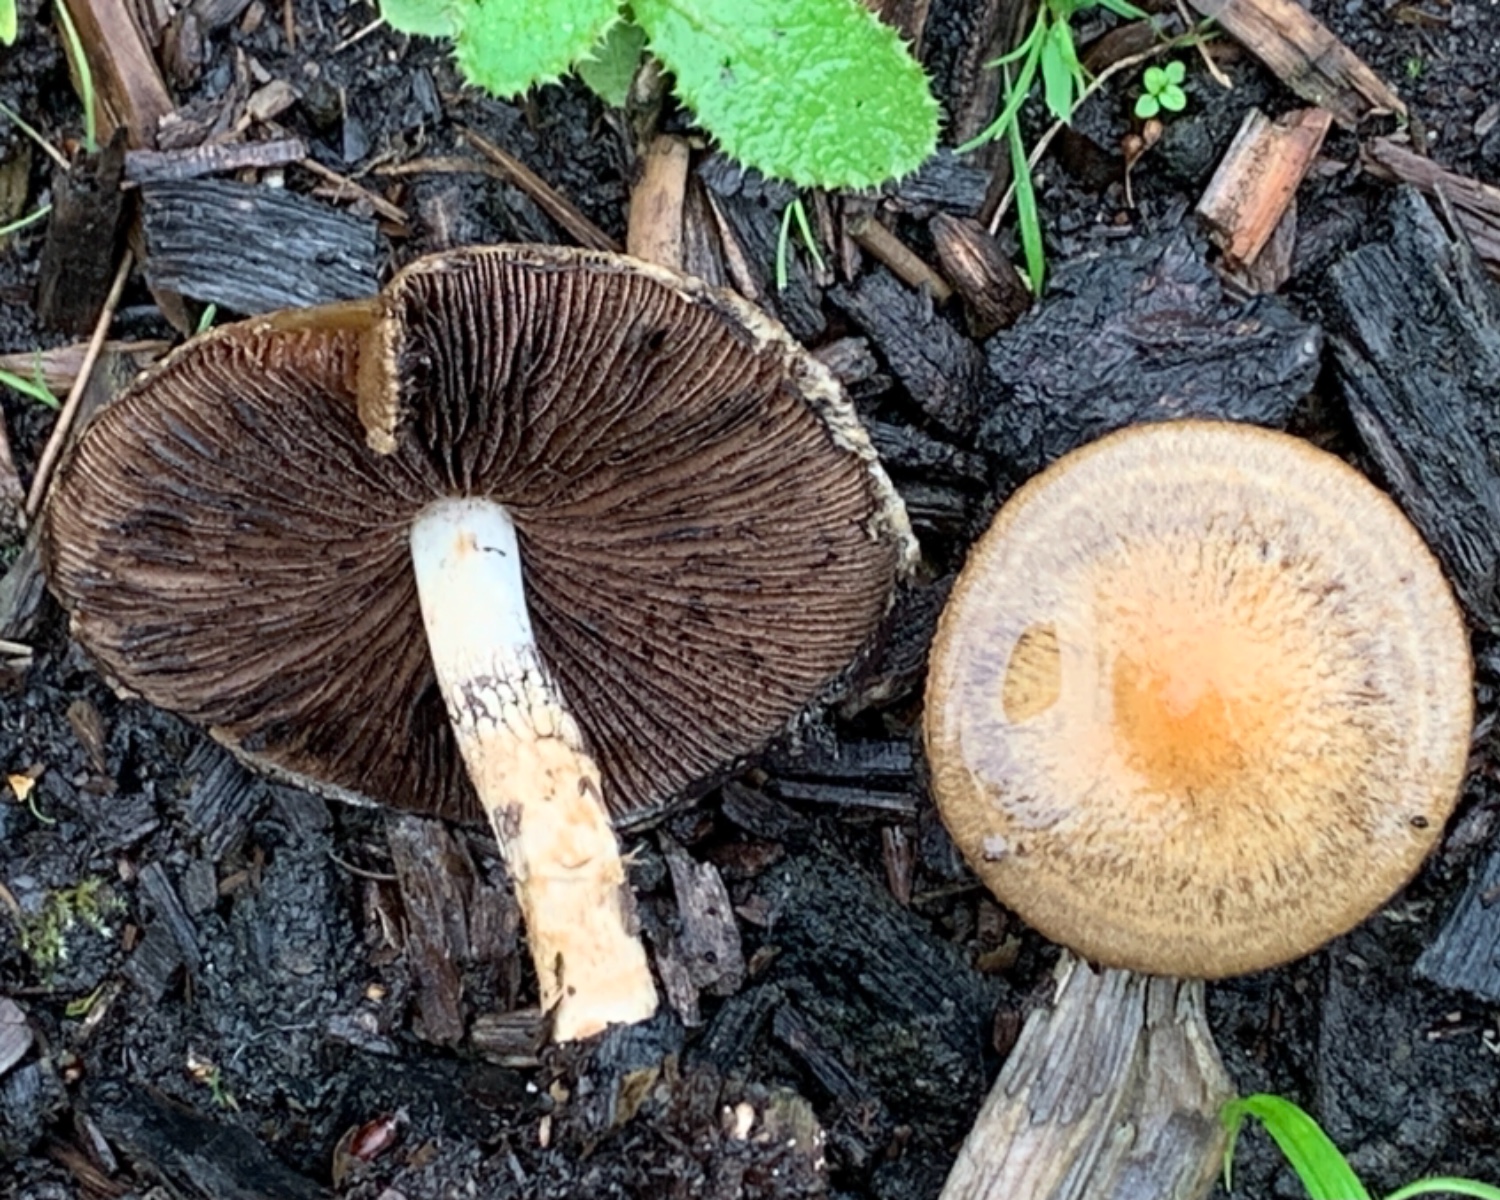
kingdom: Fungi
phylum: Basidiomycota
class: Agaricomycetes
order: Agaricales
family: Psathyrellaceae
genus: Lacrymaria
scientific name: Lacrymaria lacrymabunda
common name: grædende mørkhat
